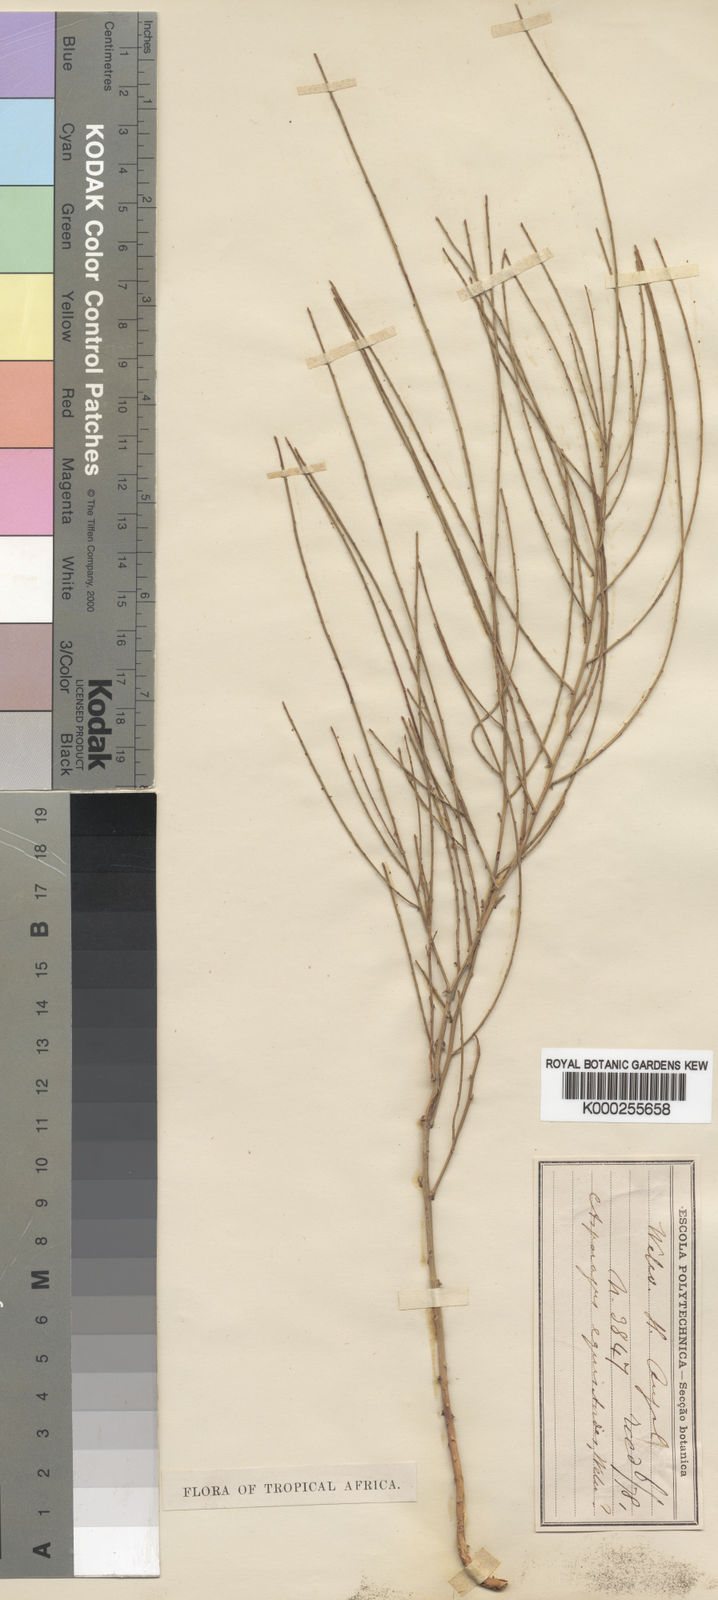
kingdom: Plantae
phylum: Tracheophyta
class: Liliopsida
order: Asparagales
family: Asparagaceae
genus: Asparagus
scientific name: Asparagus equisetoides
